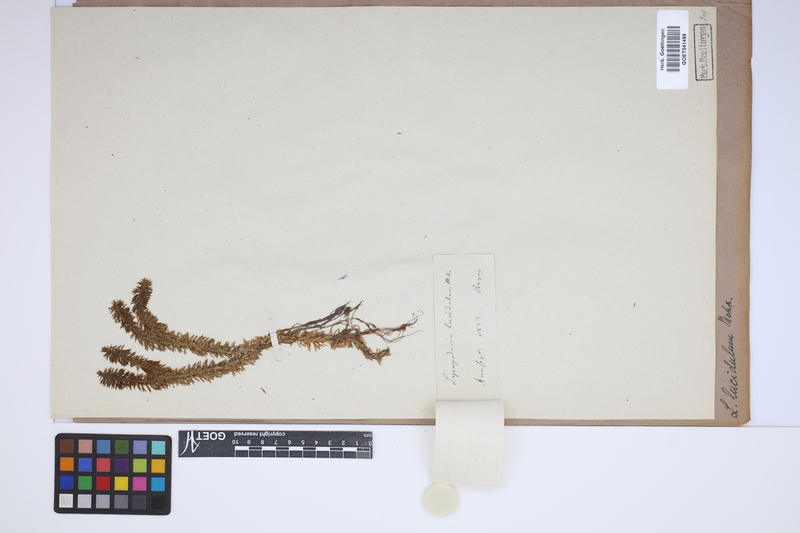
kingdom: Plantae
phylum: Tracheophyta
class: Lycopodiopsida
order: Lycopodiales
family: Lycopodiaceae
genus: Huperzia
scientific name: Huperzia lucidula
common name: Shining clubmoss
